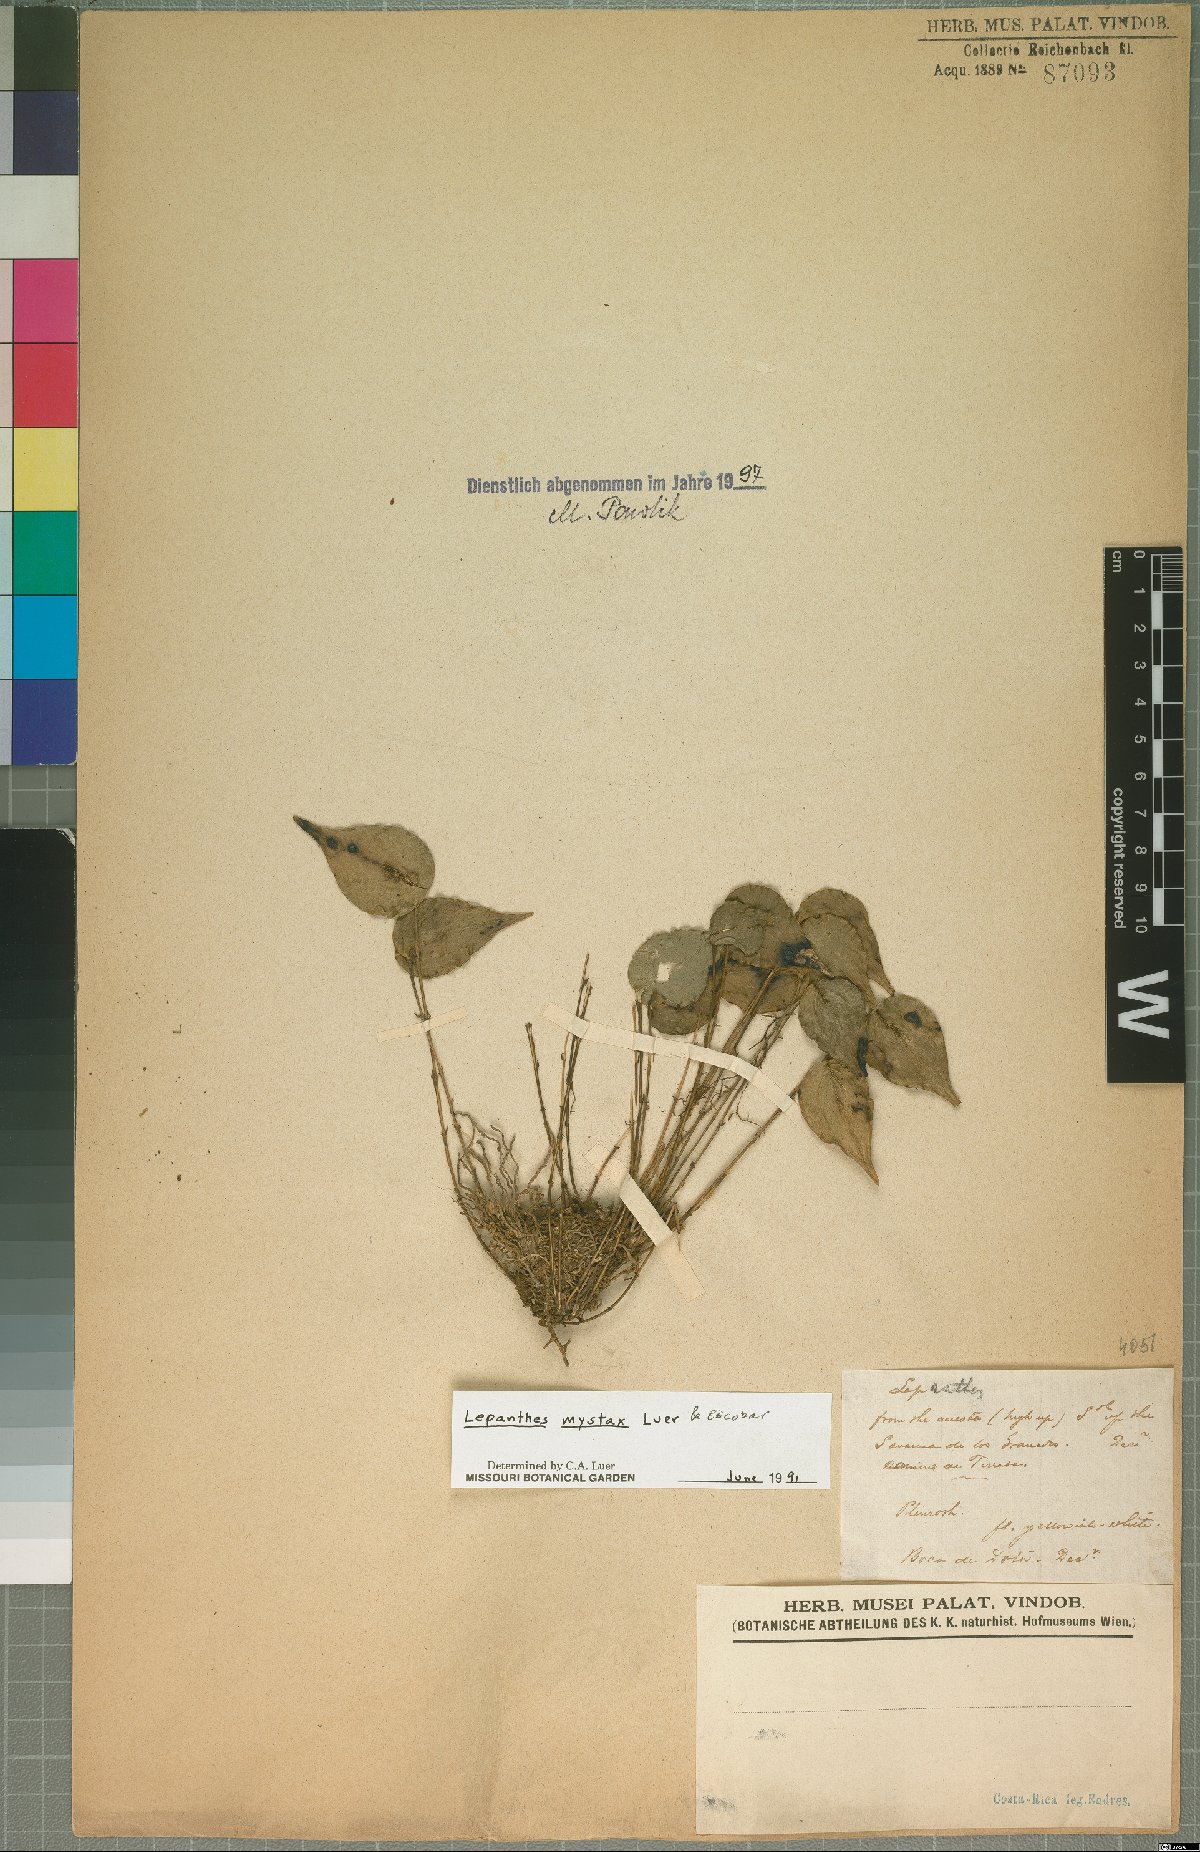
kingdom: Plantae
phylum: Tracheophyta
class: Liliopsida
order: Asparagales
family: Orchidaceae
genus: Lepanthes
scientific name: Lepanthes mystax
